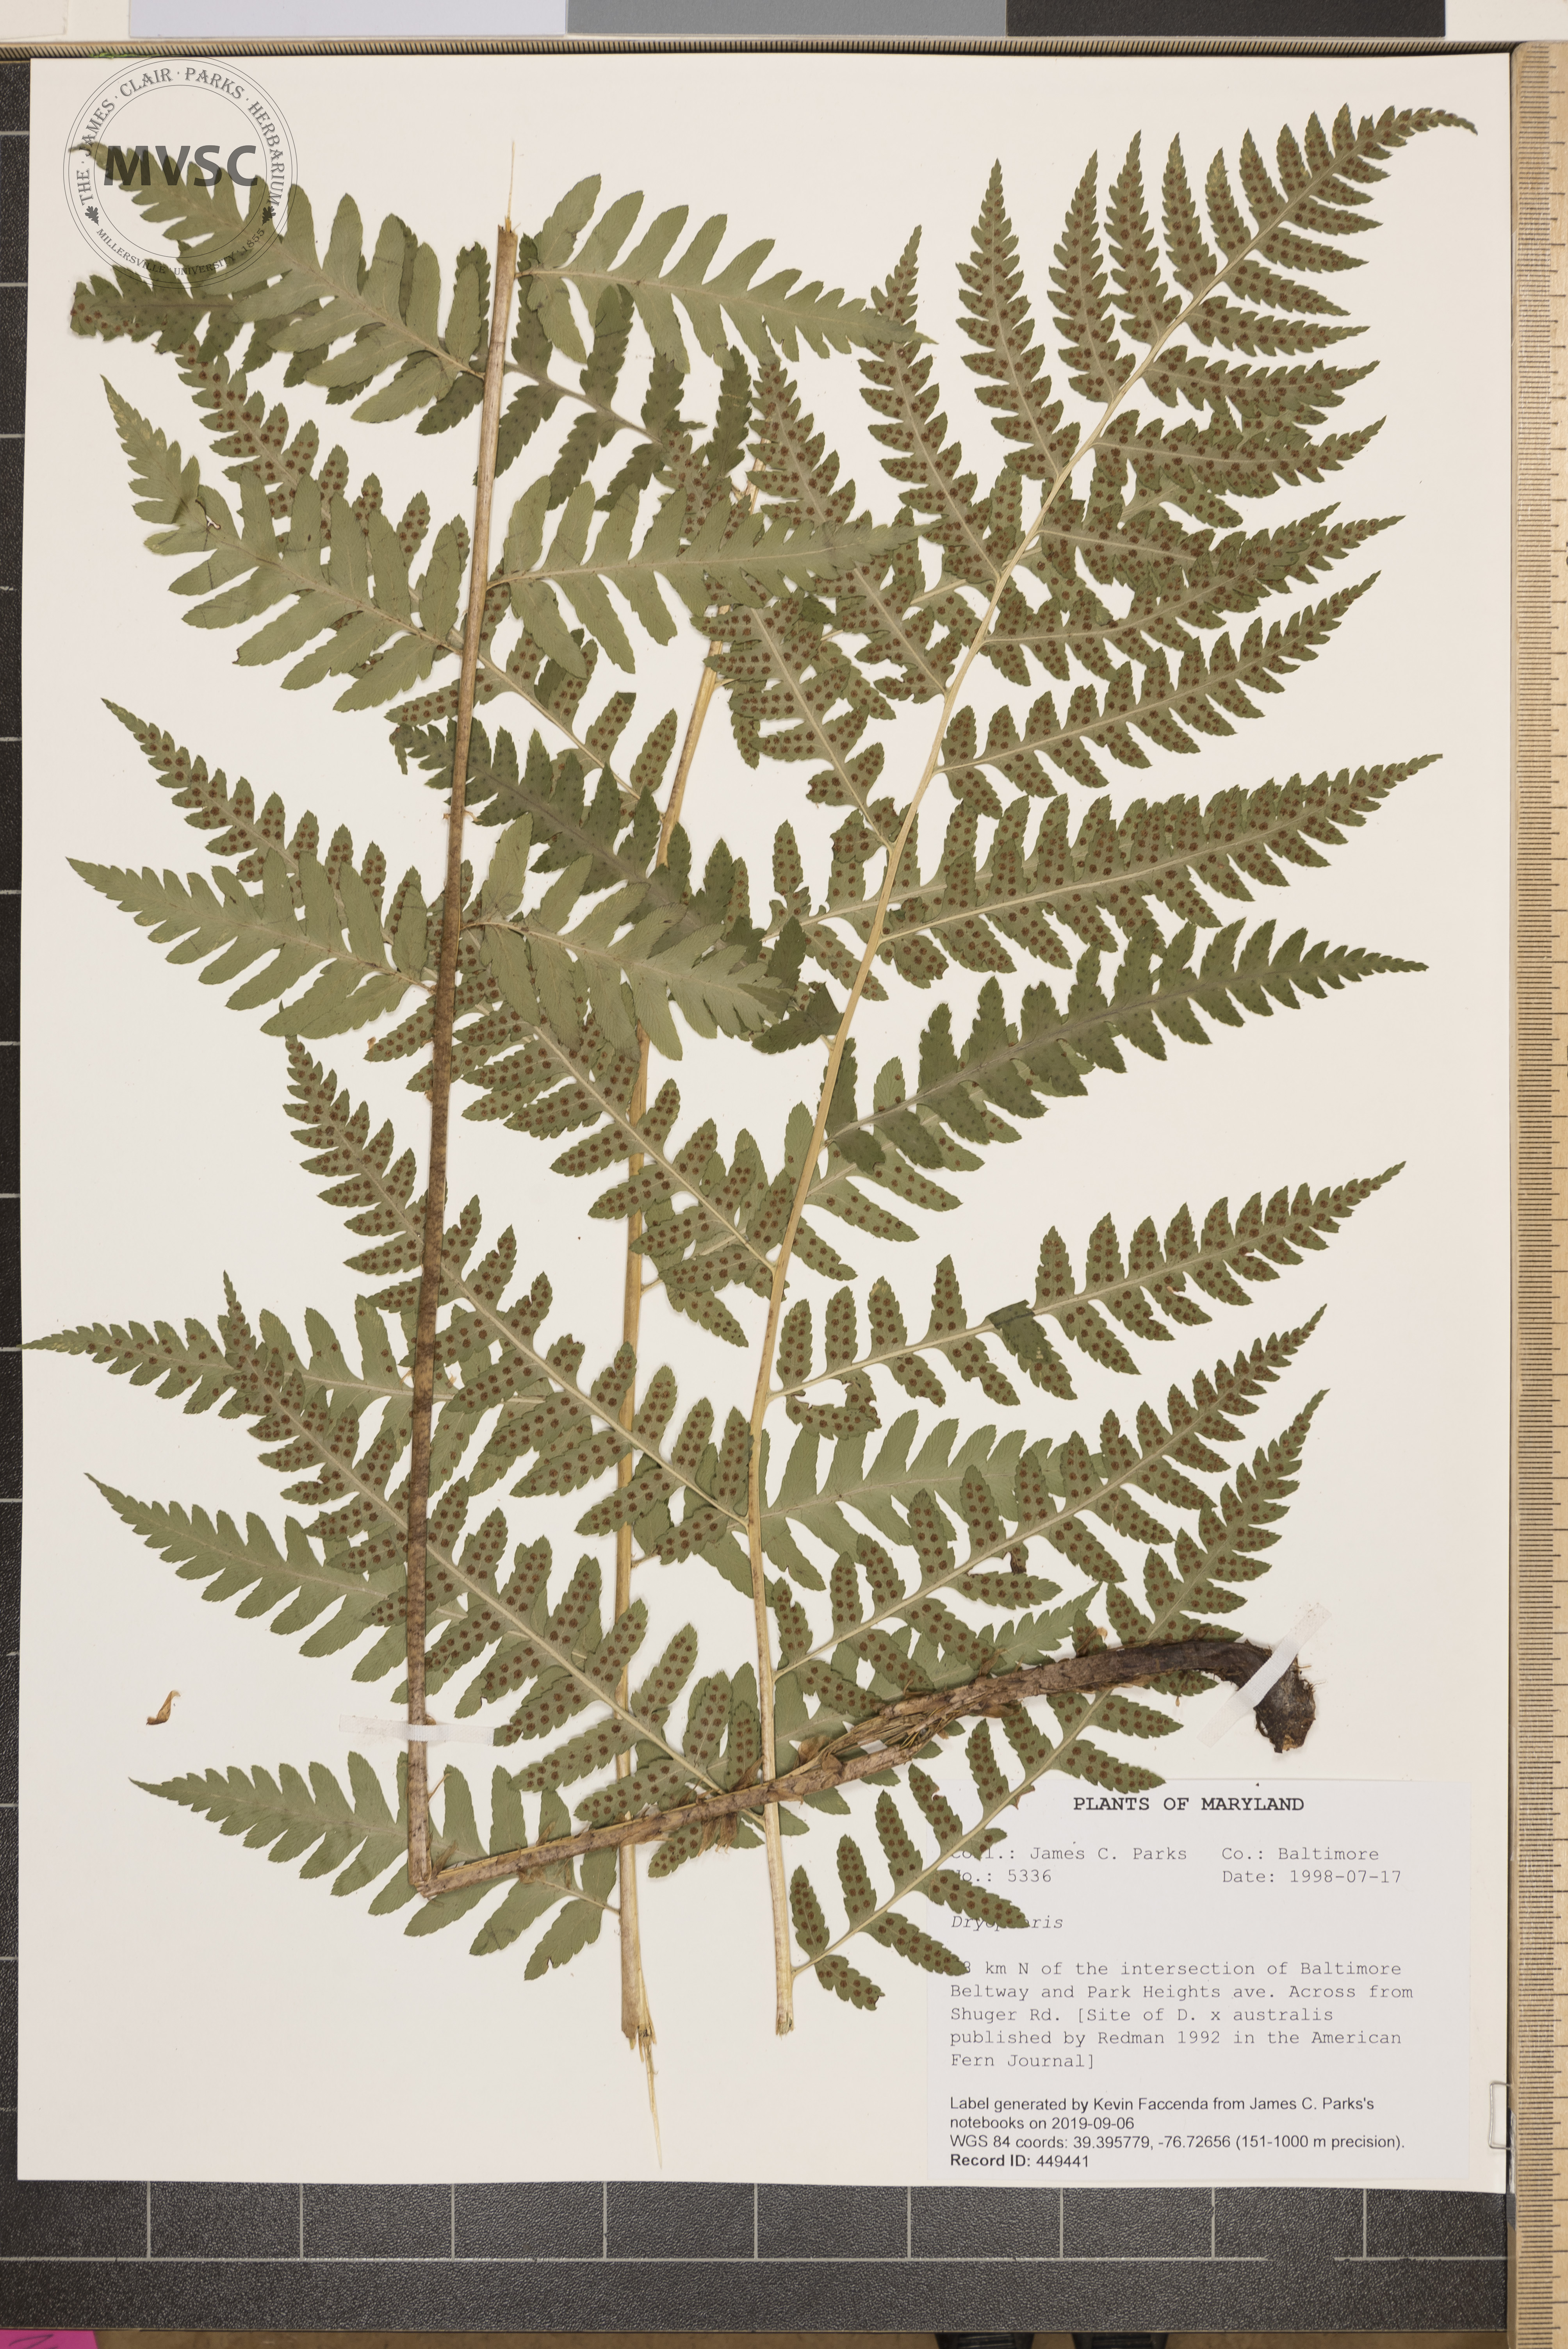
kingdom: Plantae
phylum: Tracheophyta
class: Polypodiopsida
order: Polypodiales
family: Dryopteridaceae
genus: Dryopteris
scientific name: Dryopteris celsa
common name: Log fern
